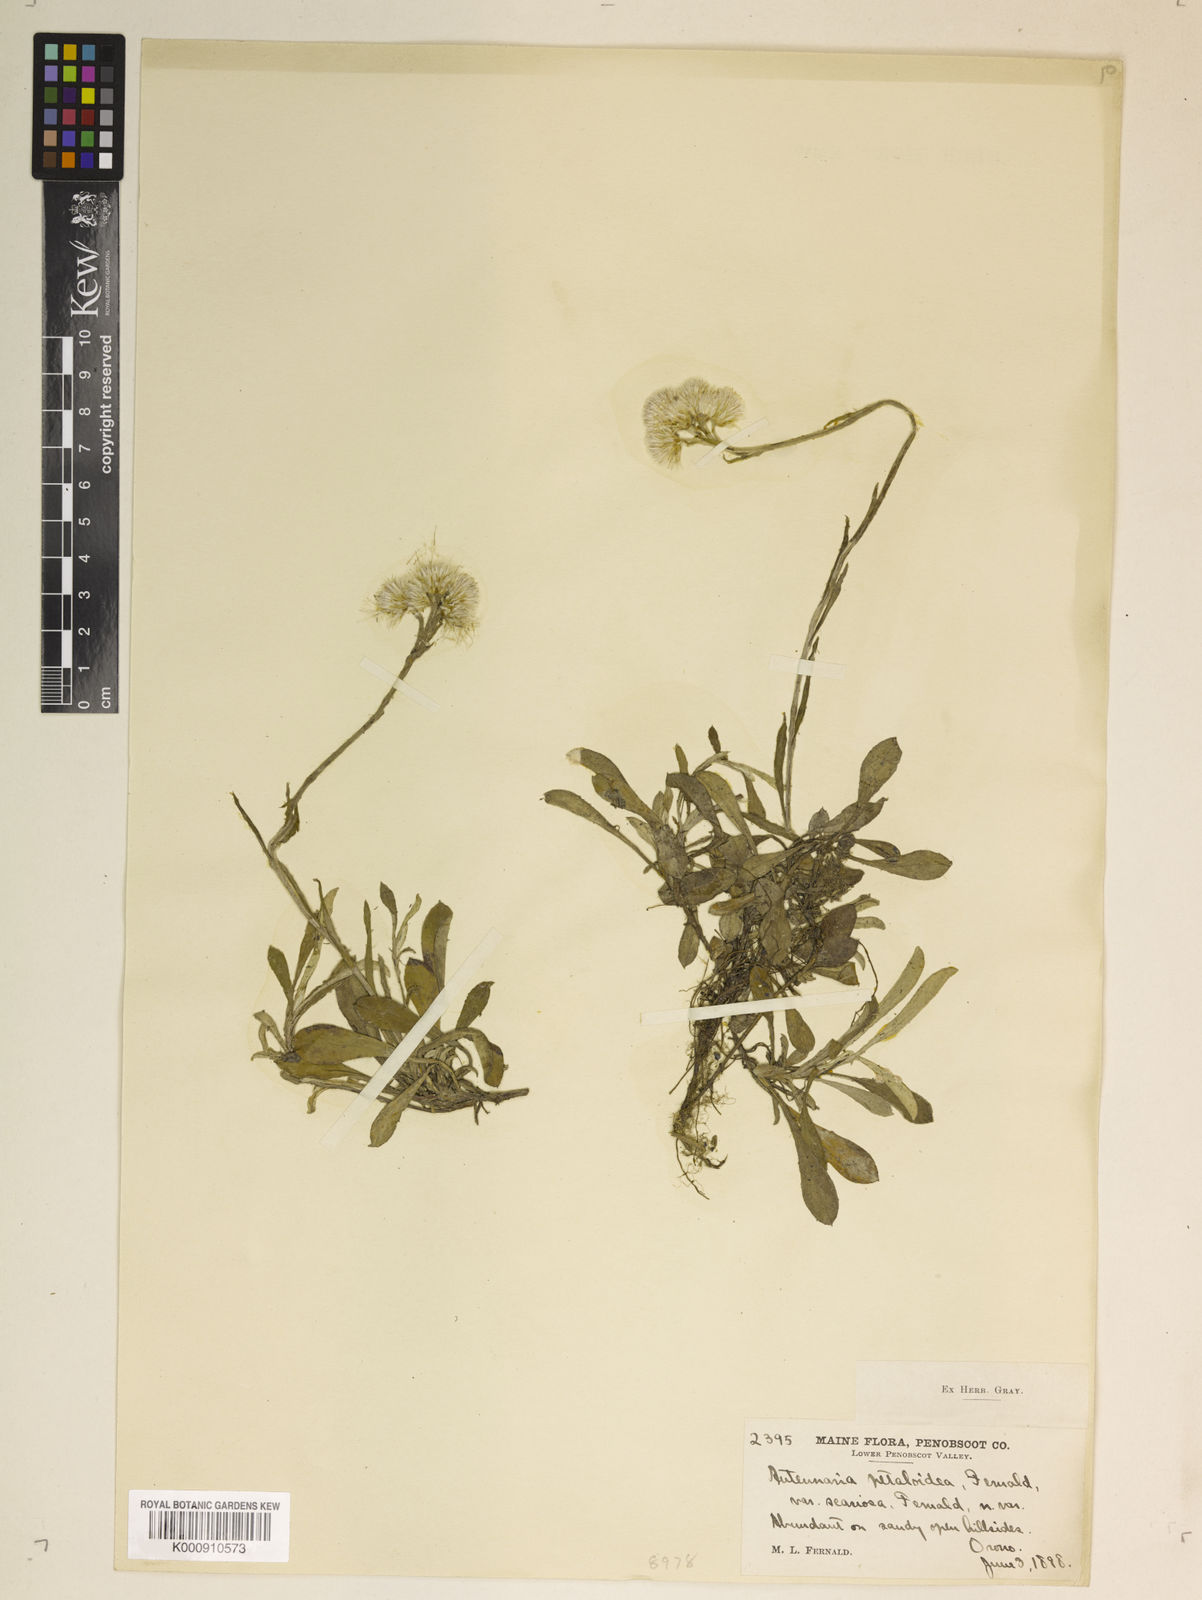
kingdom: Plantae
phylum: Tracheophyta
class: Magnoliopsida
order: Asterales
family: Asteraceae
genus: Antennaria
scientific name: Antennaria howellii
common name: Howell's pussytoes
